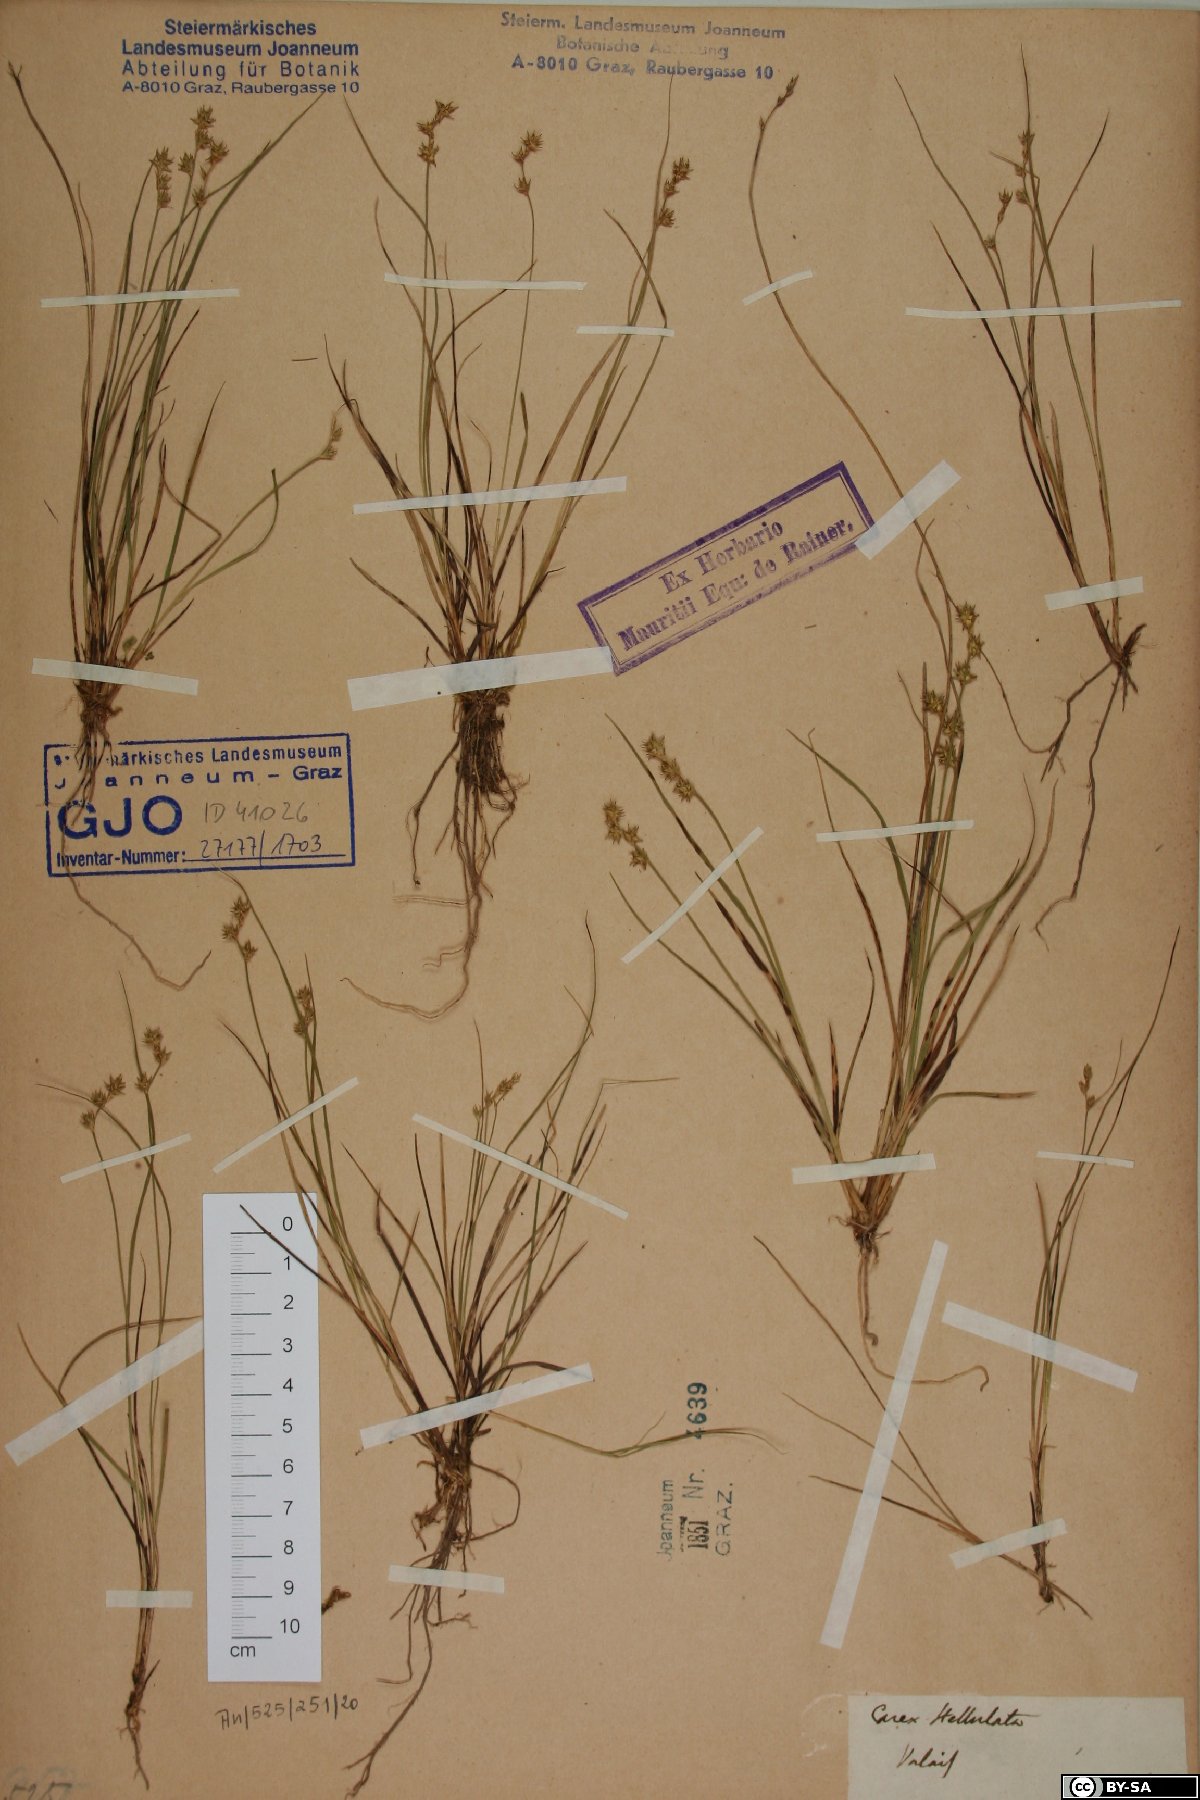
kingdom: Plantae
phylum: Tracheophyta
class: Liliopsida
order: Poales
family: Cyperaceae
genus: Carex
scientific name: Carex echinata
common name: Star sedge
